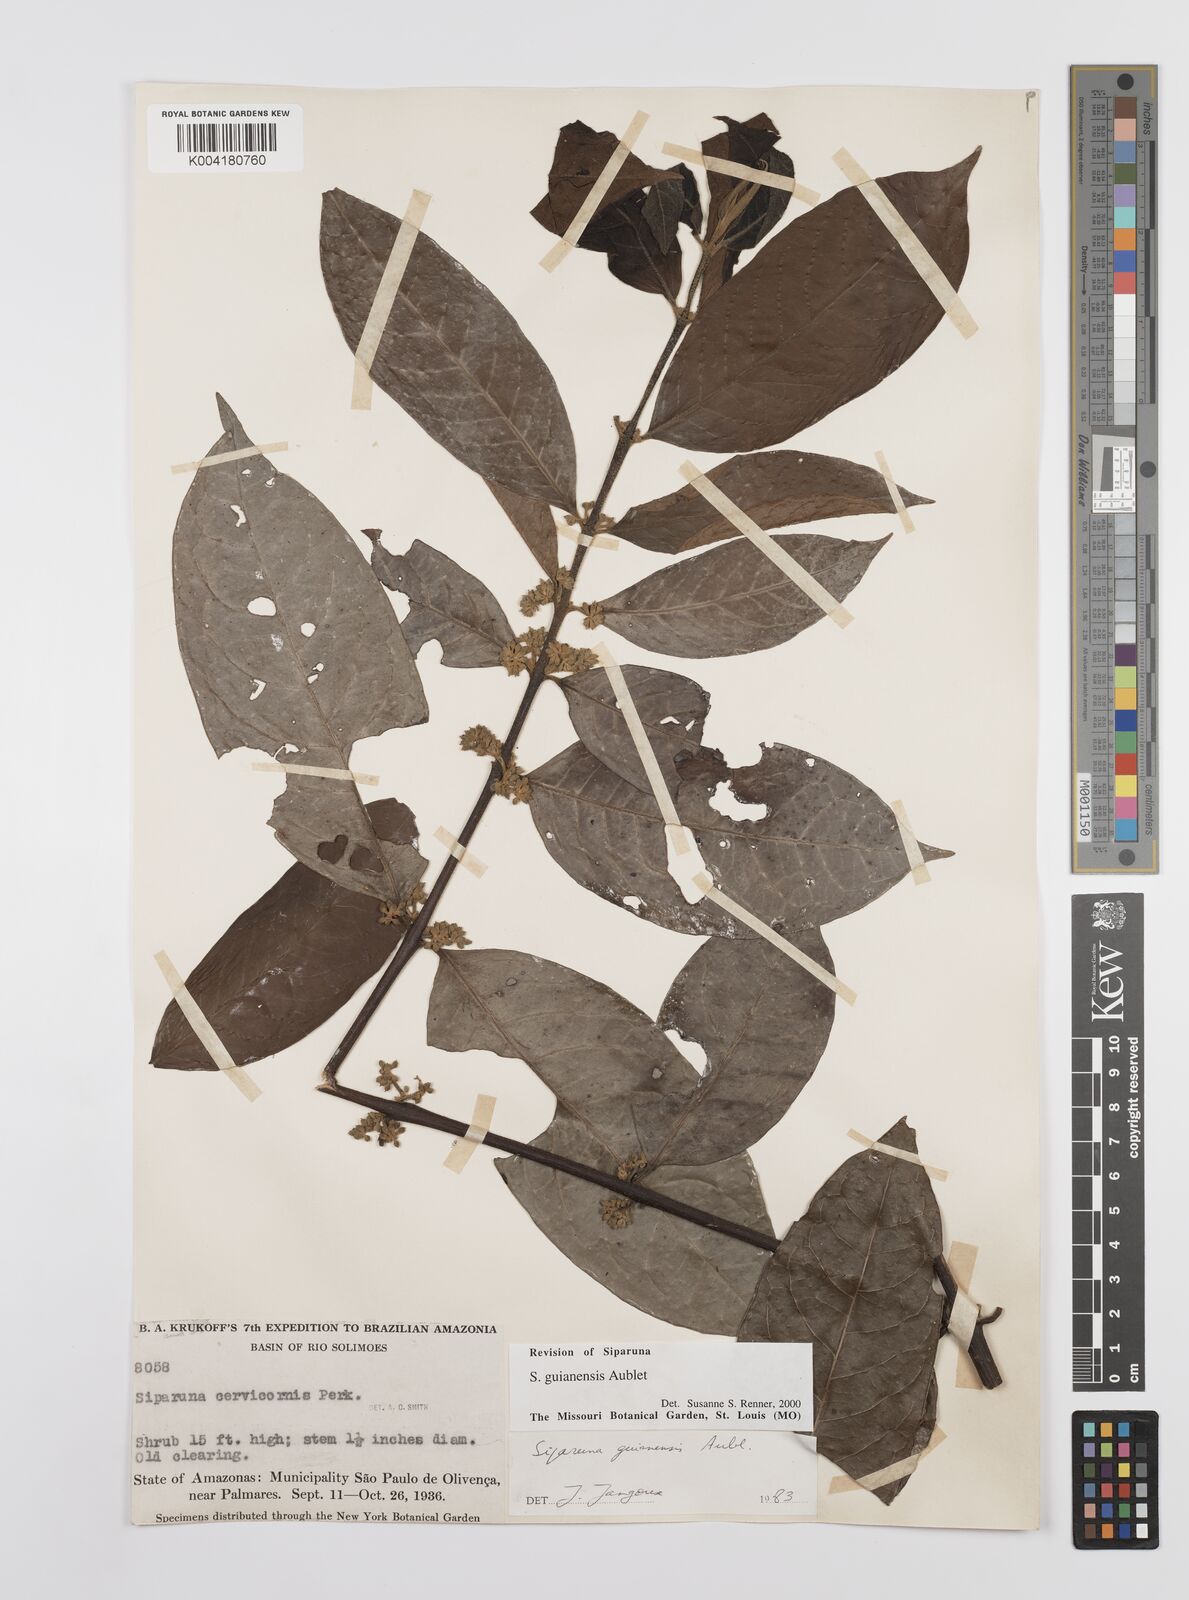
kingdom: Plantae
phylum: Tracheophyta
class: Magnoliopsida
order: Laurales
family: Siparunaceae
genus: Siparuna
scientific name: Siparuna guianensis
